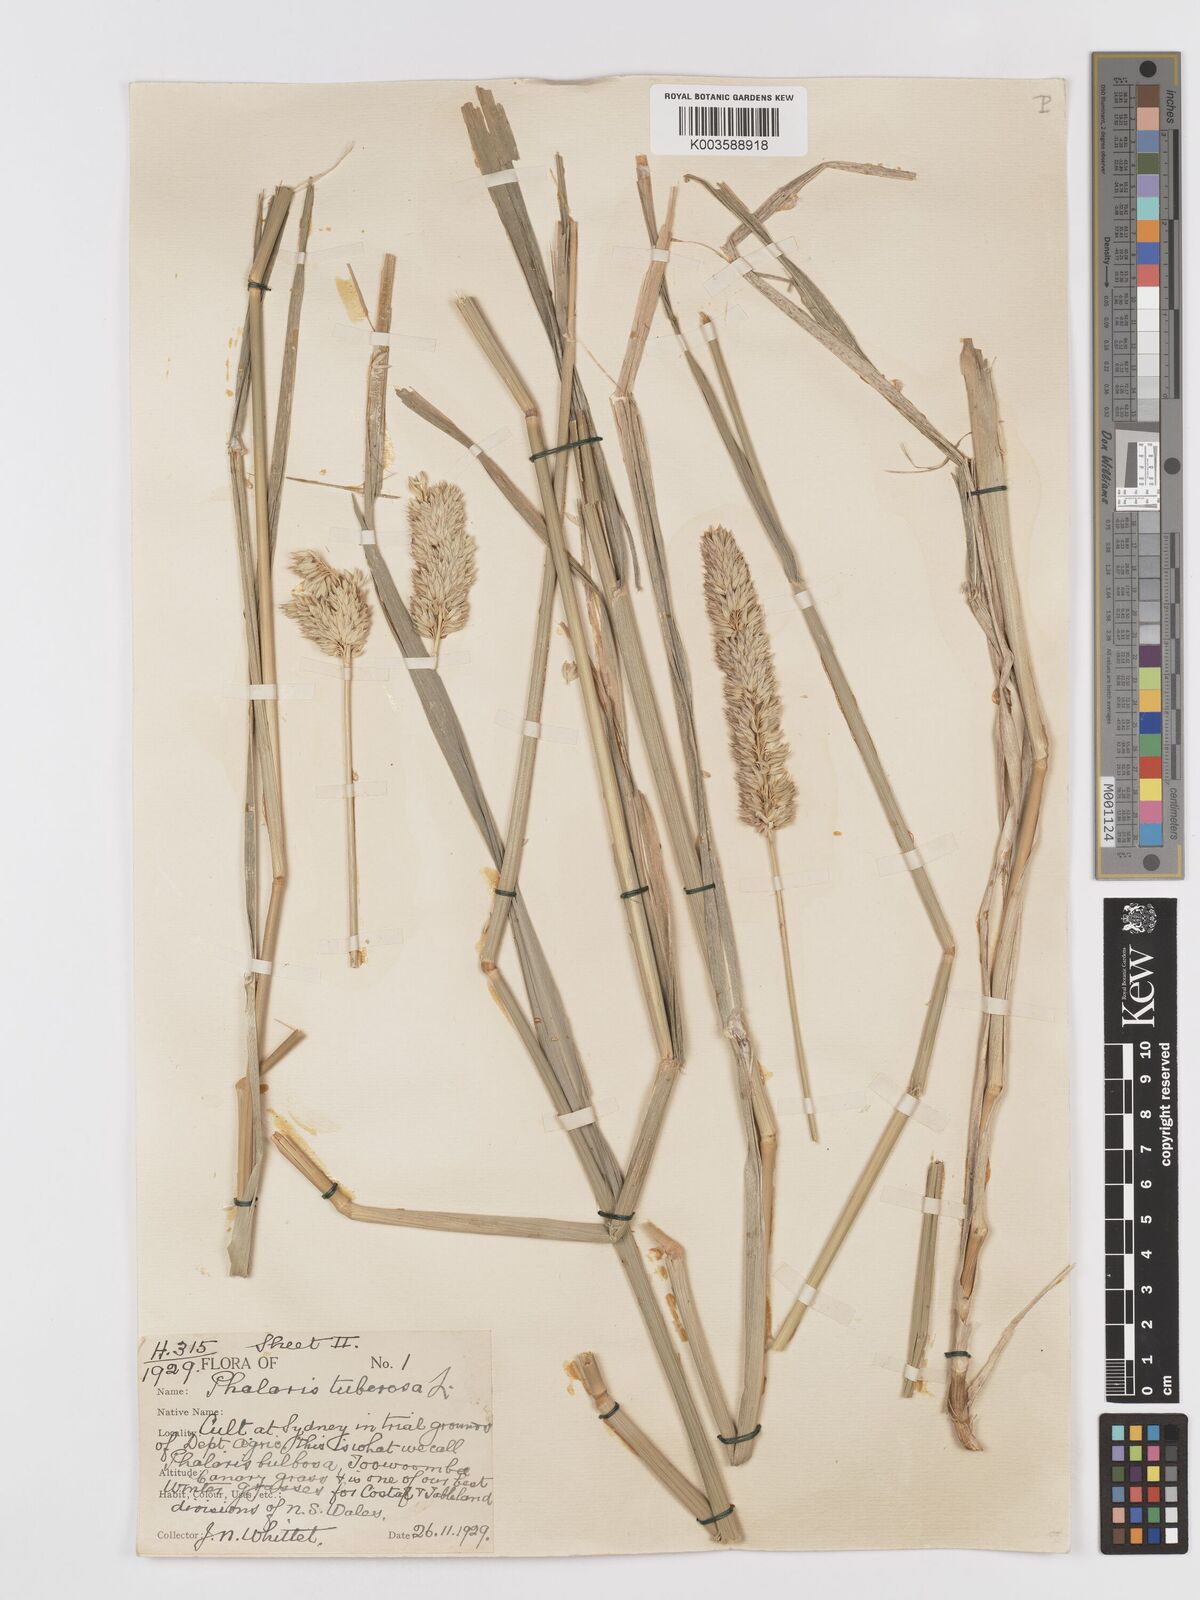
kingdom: Plantae
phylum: Tracheophyta
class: Liliopsida
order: Poales
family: Poaceae
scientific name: Poaceae
